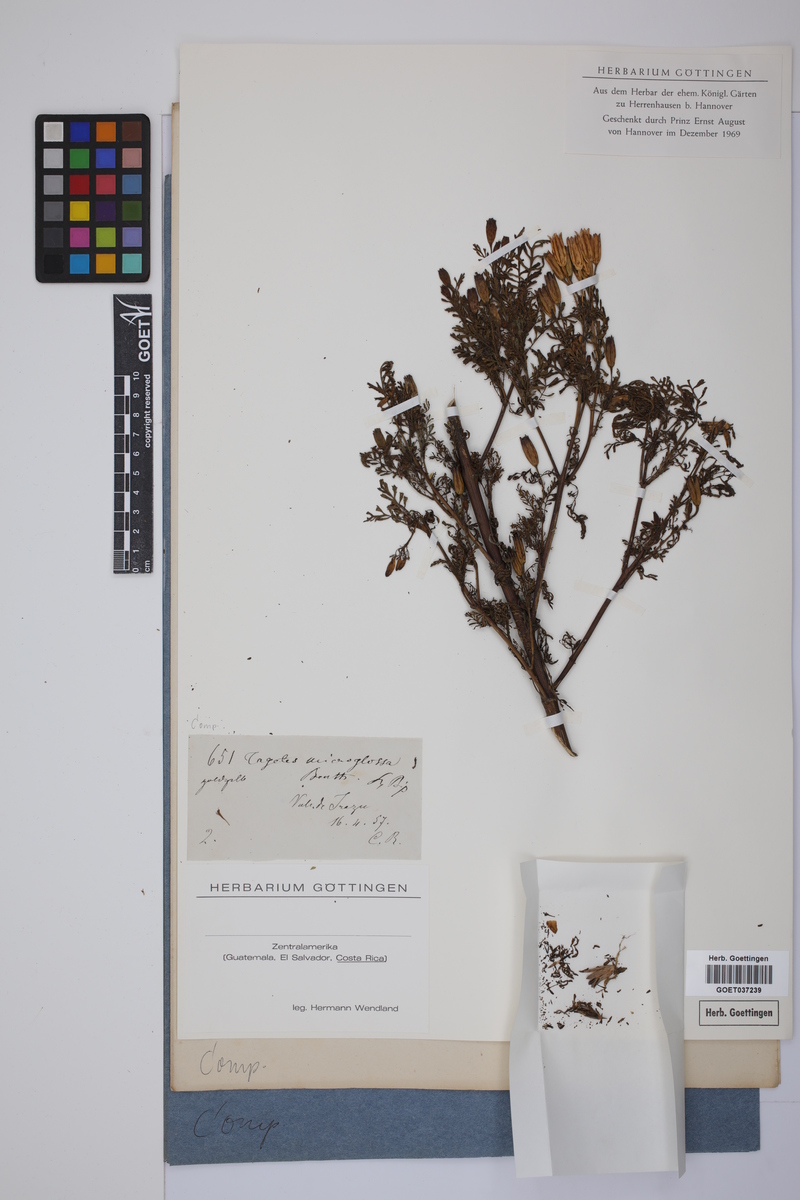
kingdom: Plantae
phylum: Tracheophyta
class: Magnoliopsida
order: Asterales
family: Asteraceae
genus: Tagetes
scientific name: Tagetes tenuifolia
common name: Signet marigold
